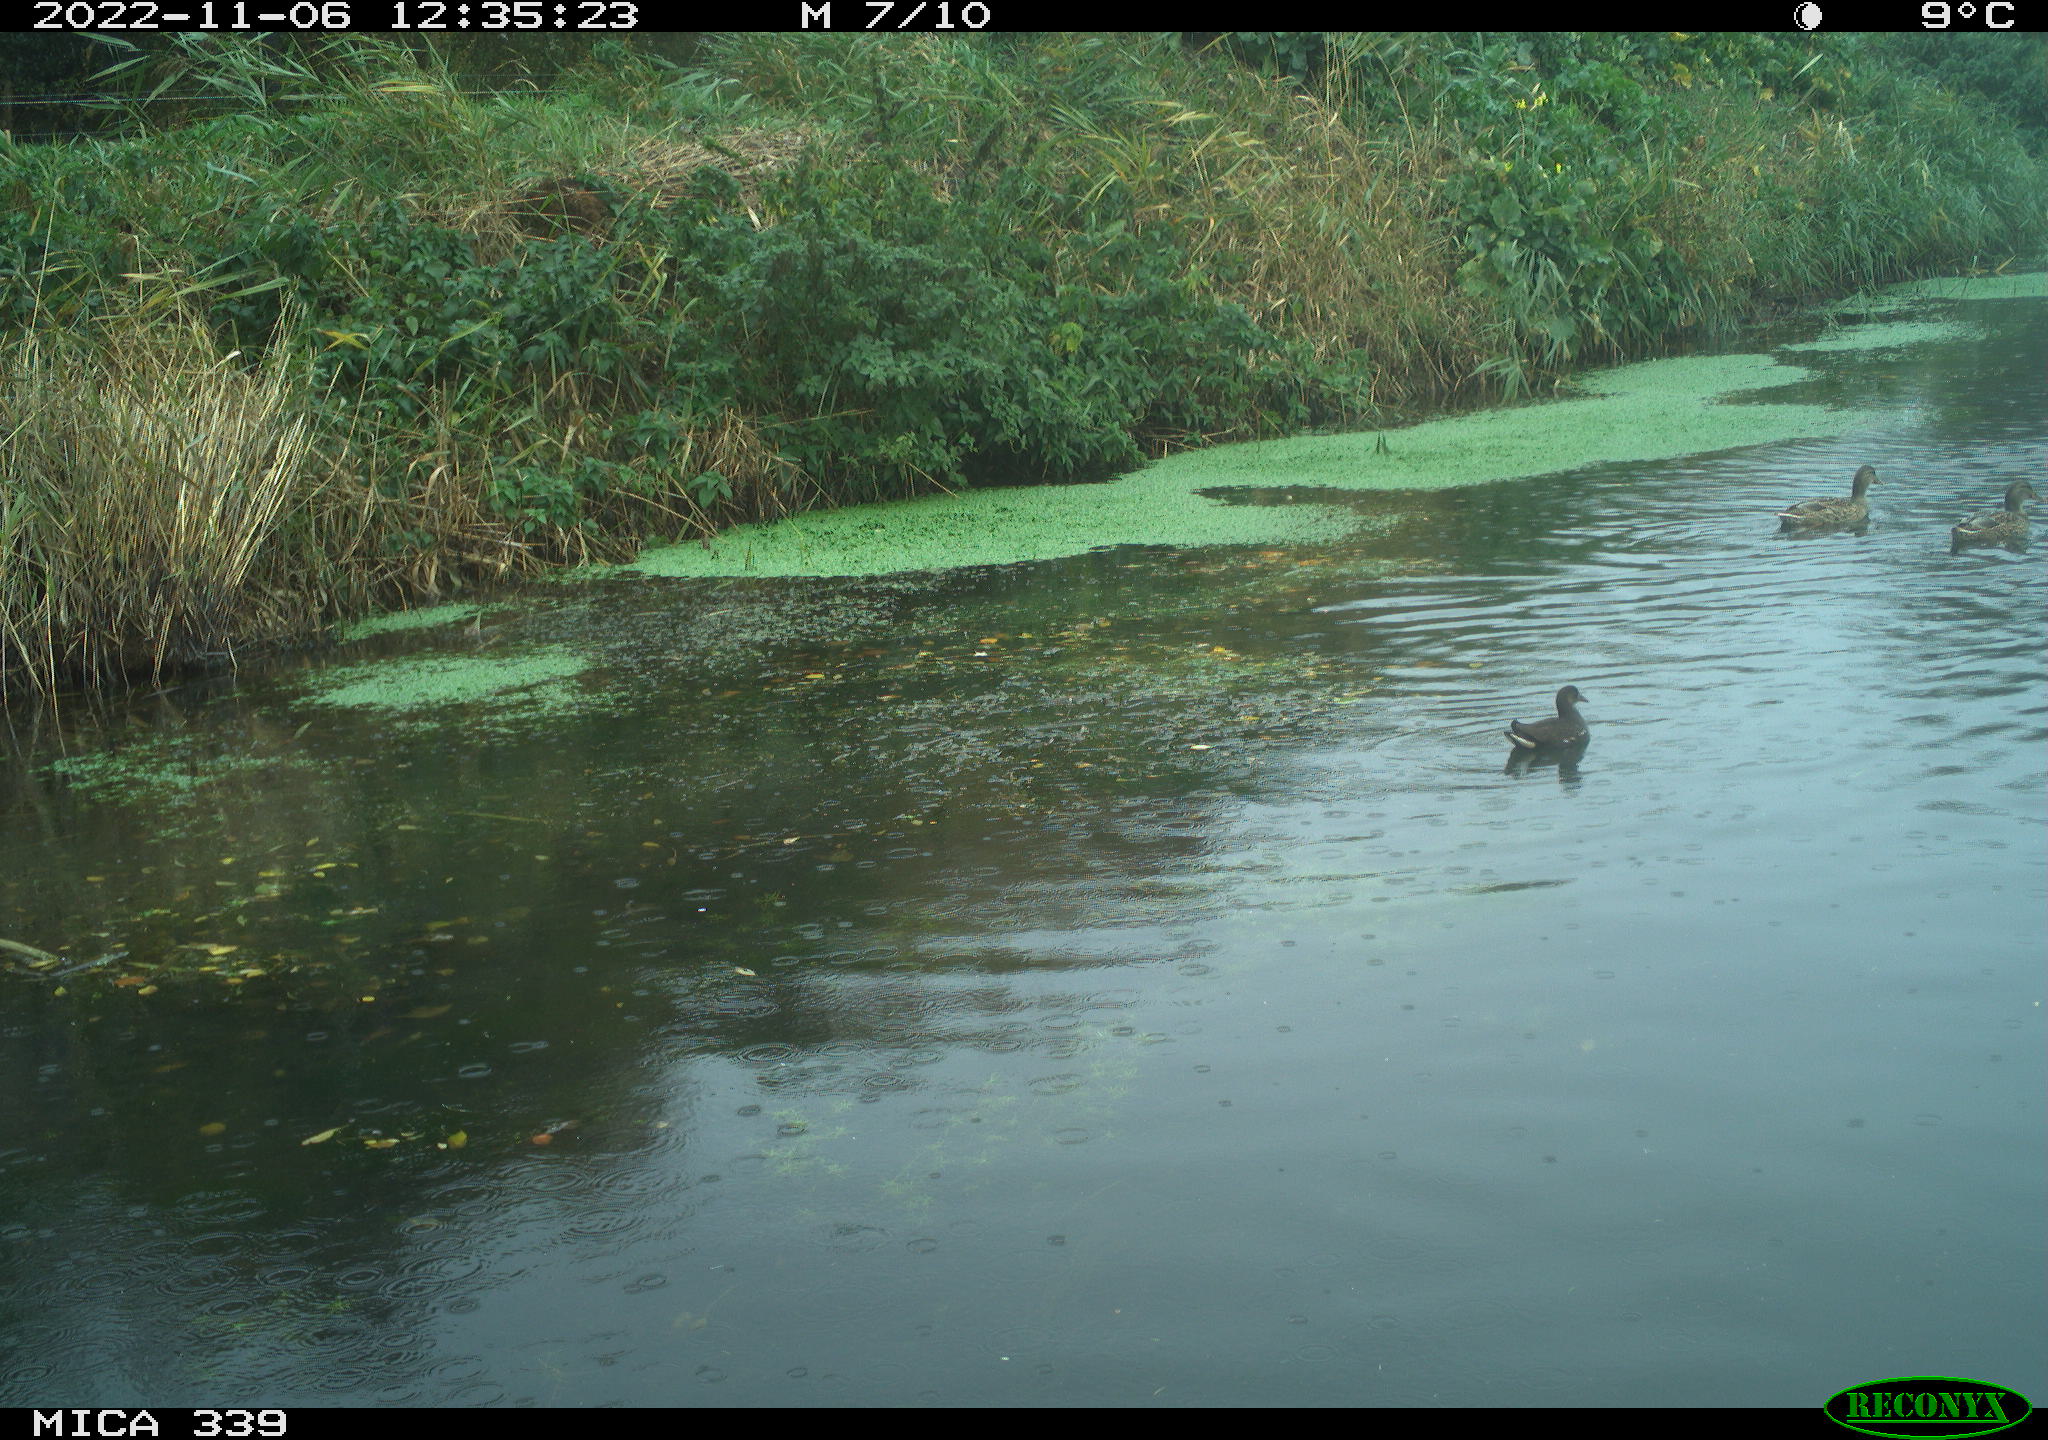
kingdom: Animalia
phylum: Chordata
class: Aves
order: Gruiformes
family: Rallidae
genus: Gallinula
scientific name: Gallinula chloropus
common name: Common moorhen
